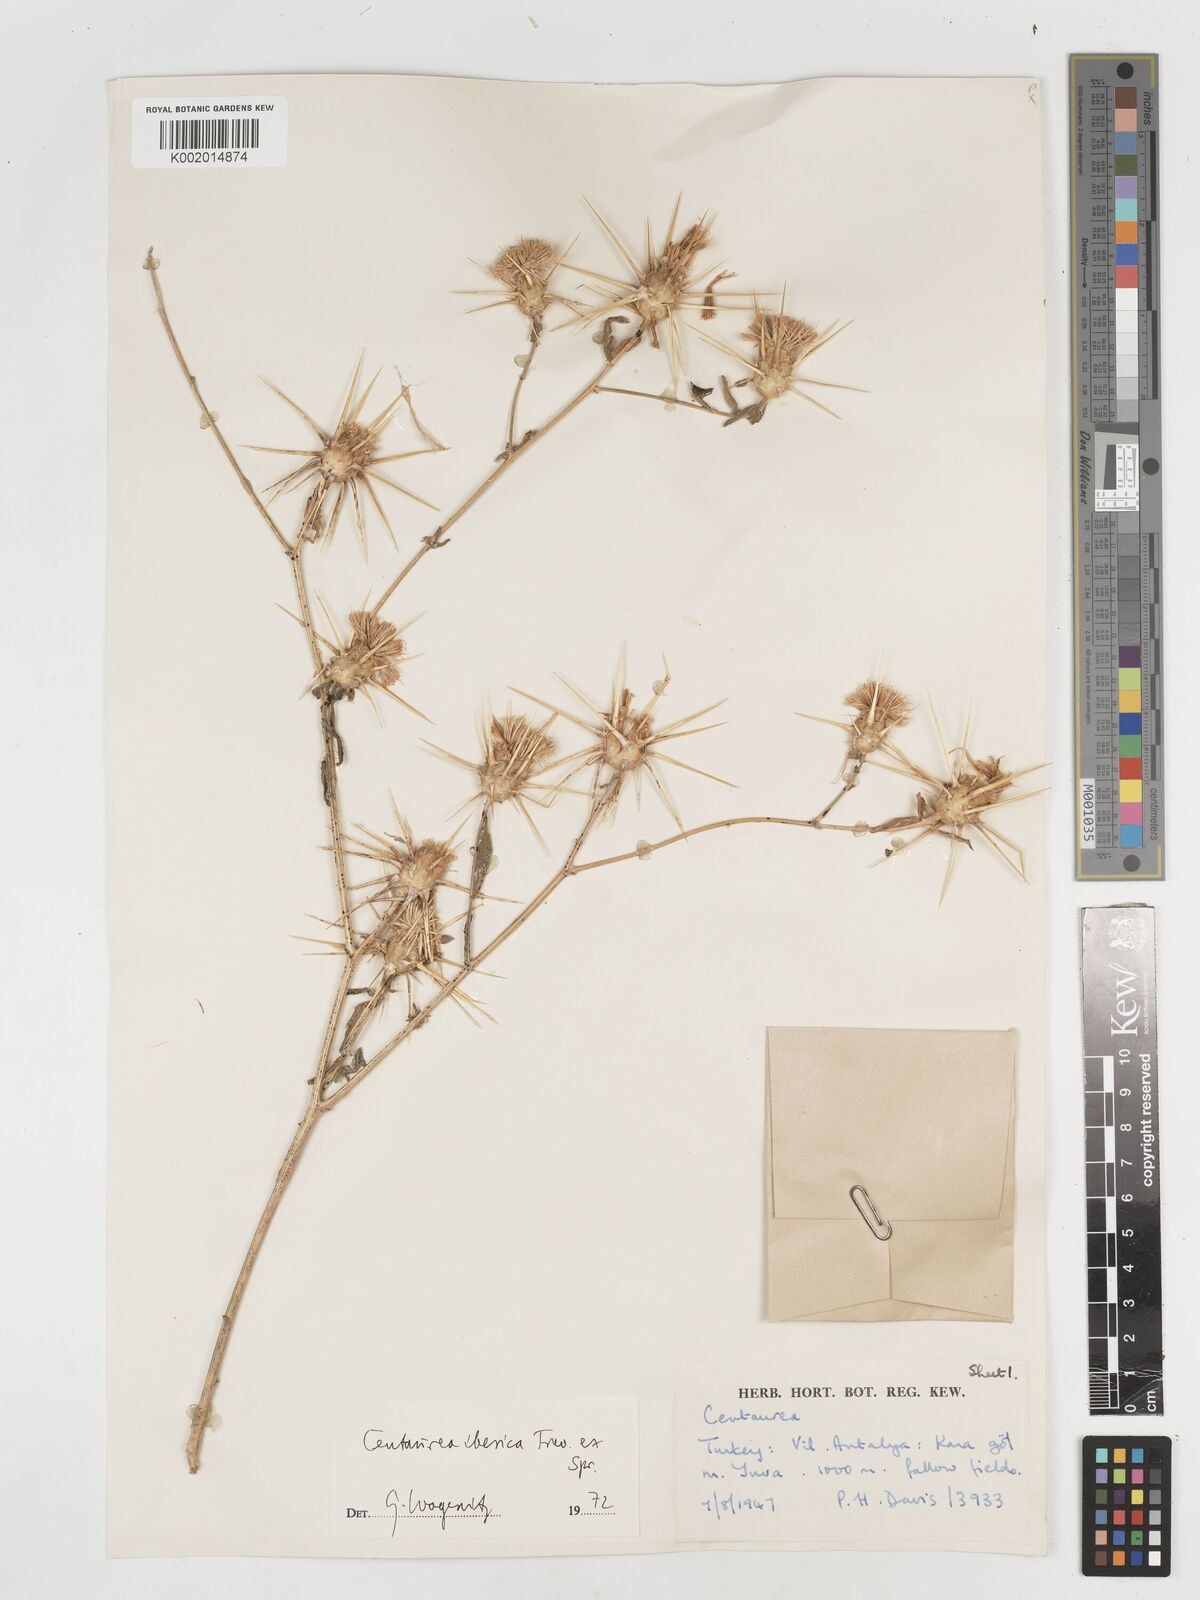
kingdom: Plantae
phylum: Tracheophyta
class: Magnoliopsida
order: Asterales
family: Asteraceae
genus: Centaurea
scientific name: Centaurea iberica
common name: Iberian knapweed
